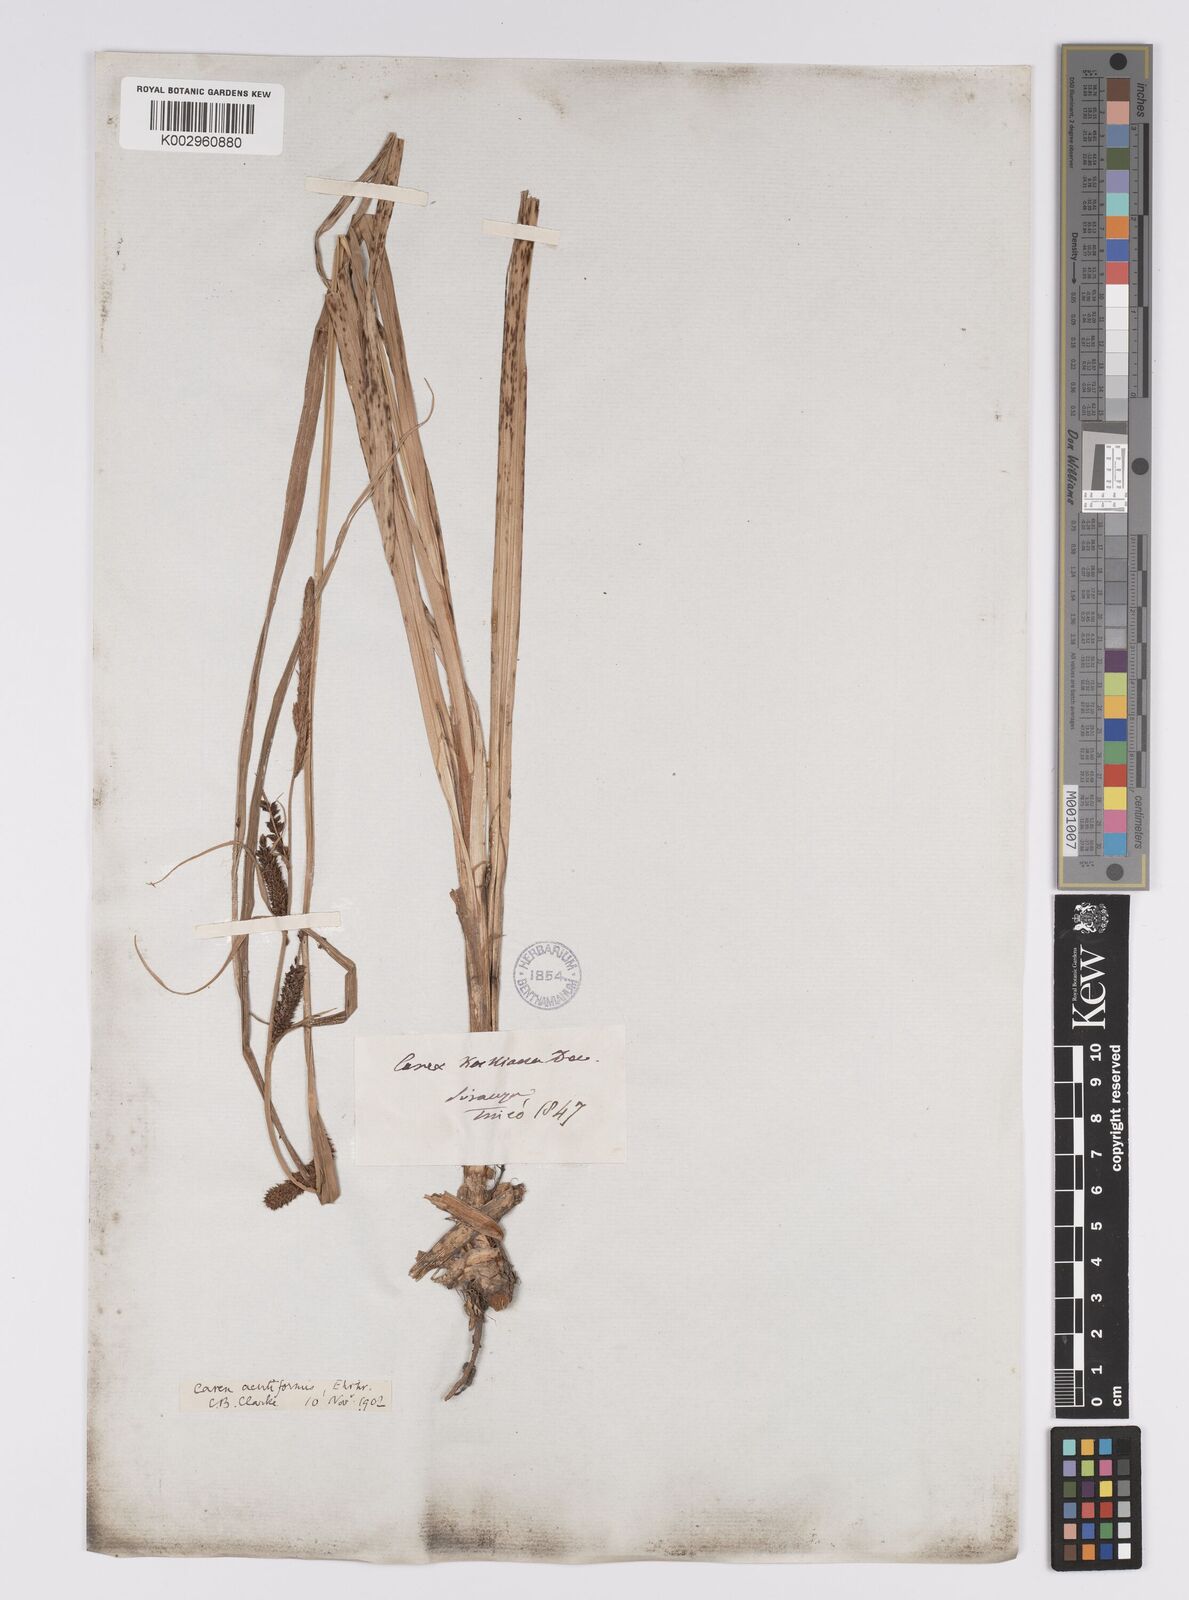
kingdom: Plantae
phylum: Tracheophyta
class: Liliopsida
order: Poales
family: Cyperaceae
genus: Carex
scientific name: Carex acutiformis
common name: Lesser pond-sedge
